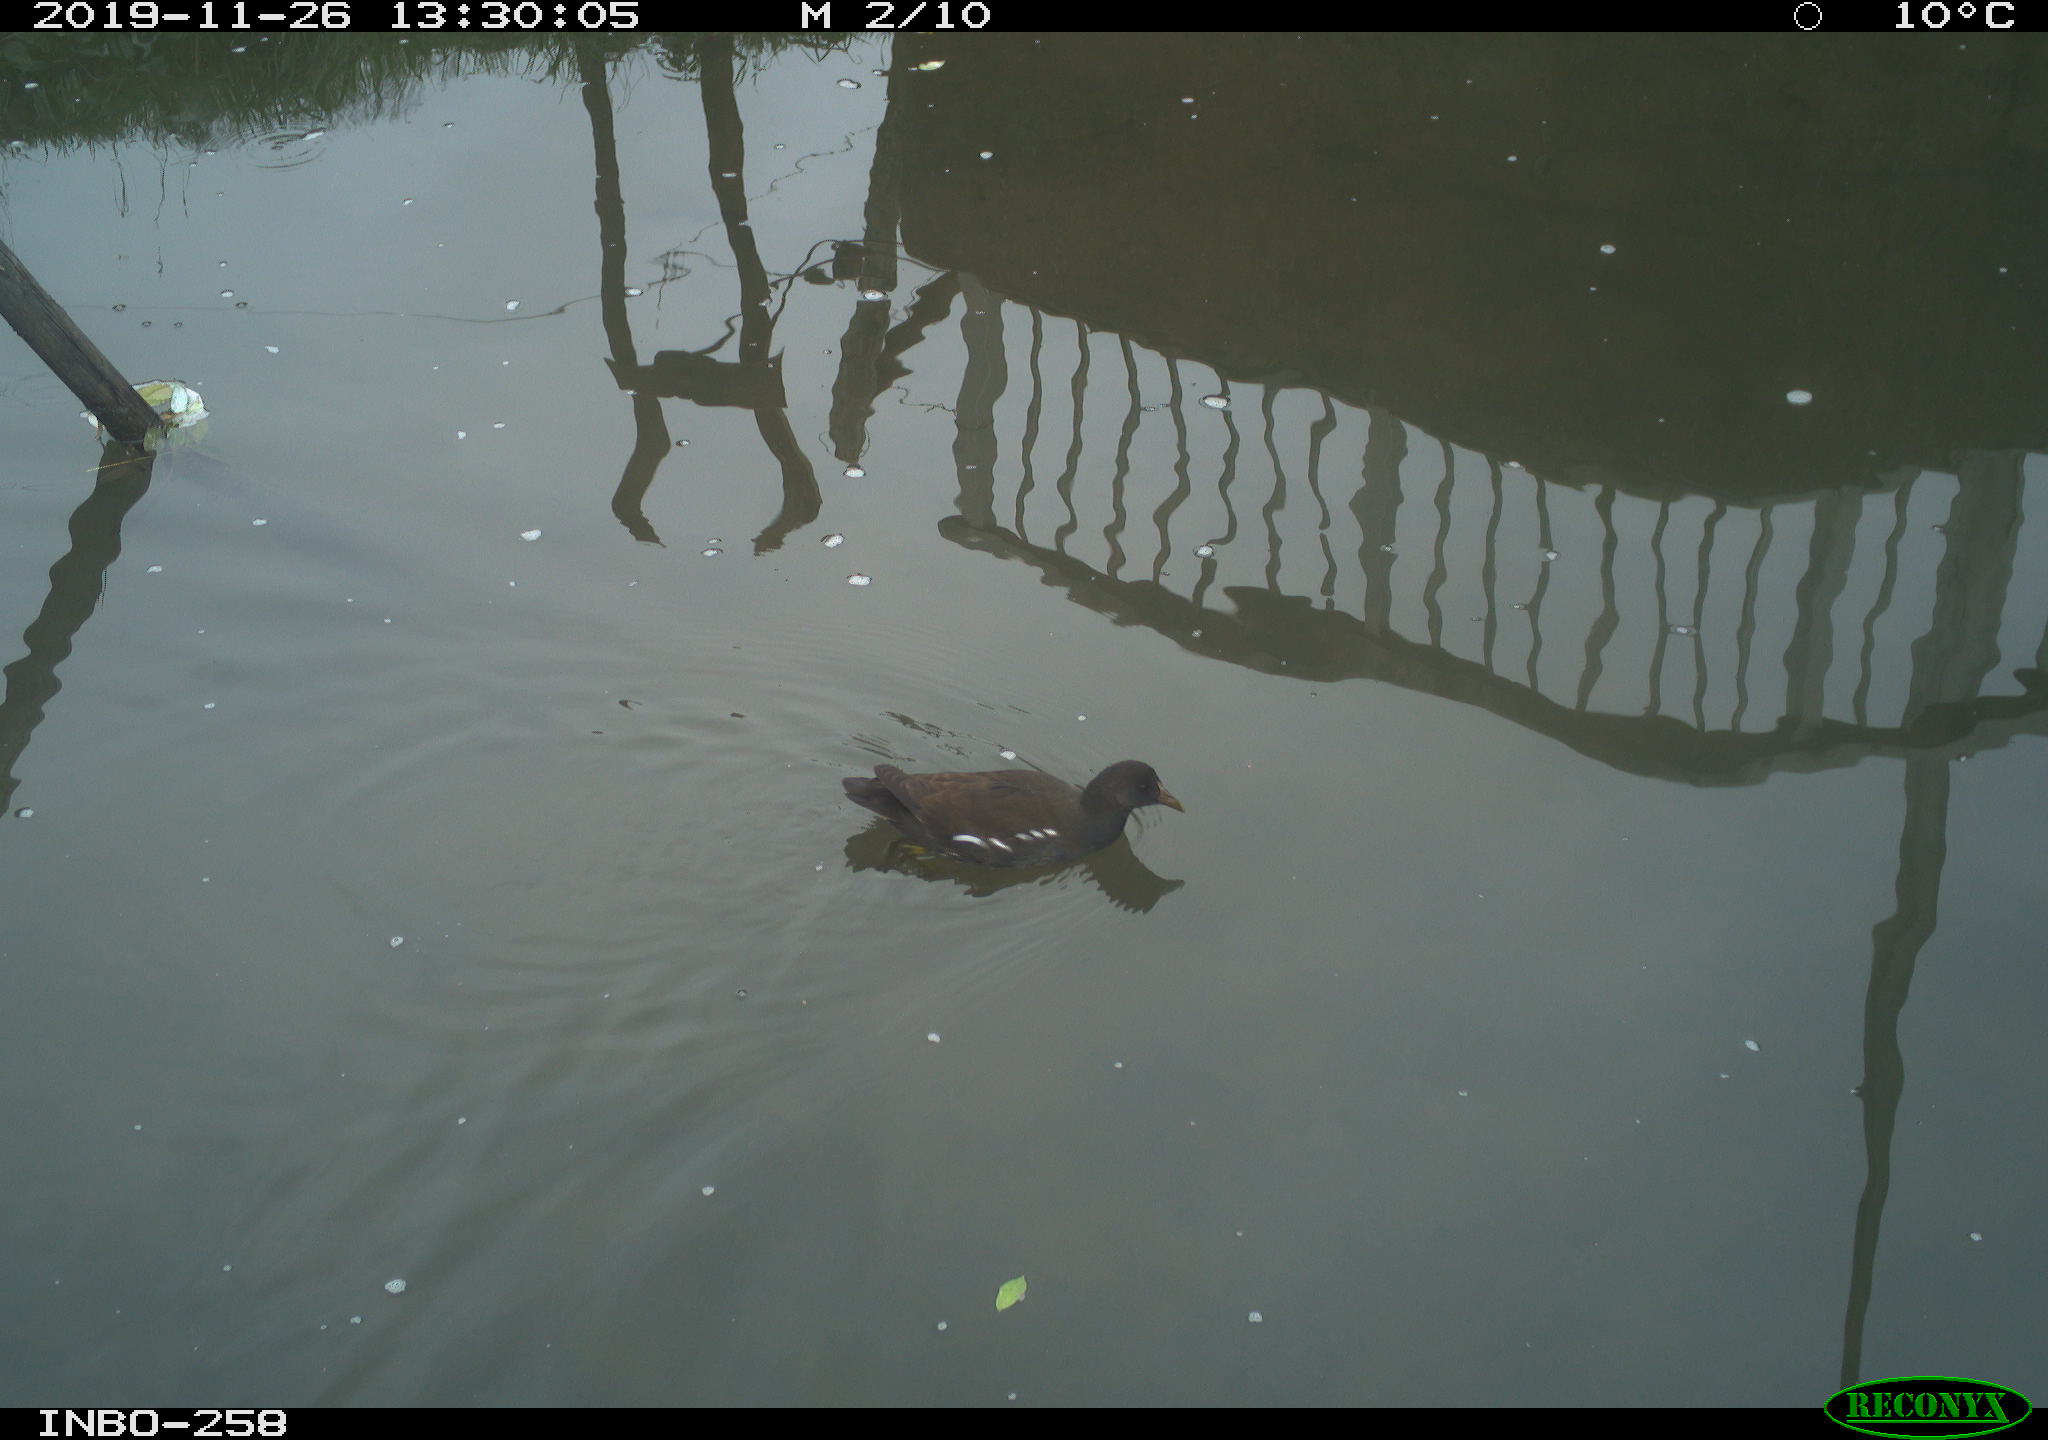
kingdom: Animalia
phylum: Chordata
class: Aves
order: Gruiformes
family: Rallidae
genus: Gallinula
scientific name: Gallinula chloropus
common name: Common moorhen
